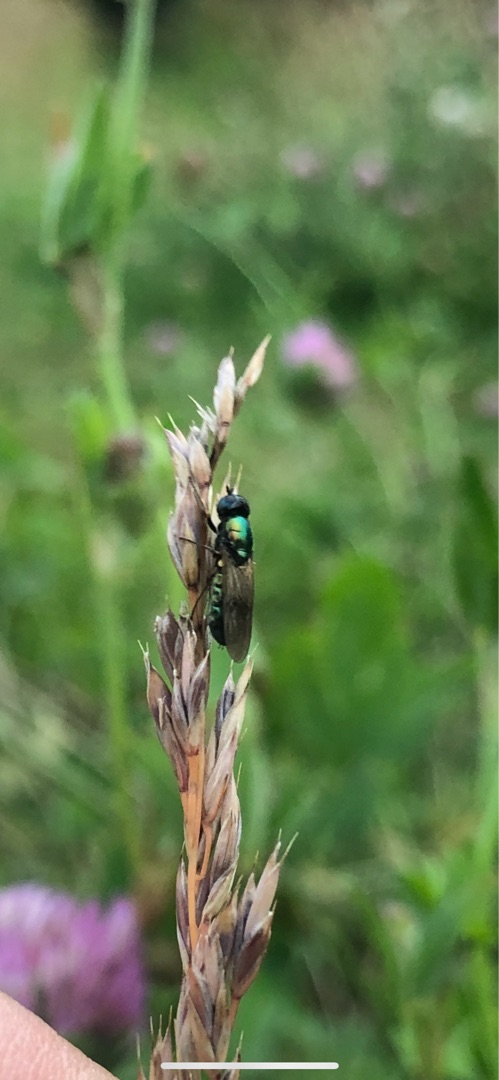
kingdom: Animalia
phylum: Arthropoda
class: Insecta
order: Diptera
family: Stratiomyidae
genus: Microchrysa
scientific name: Microchrysa polita
